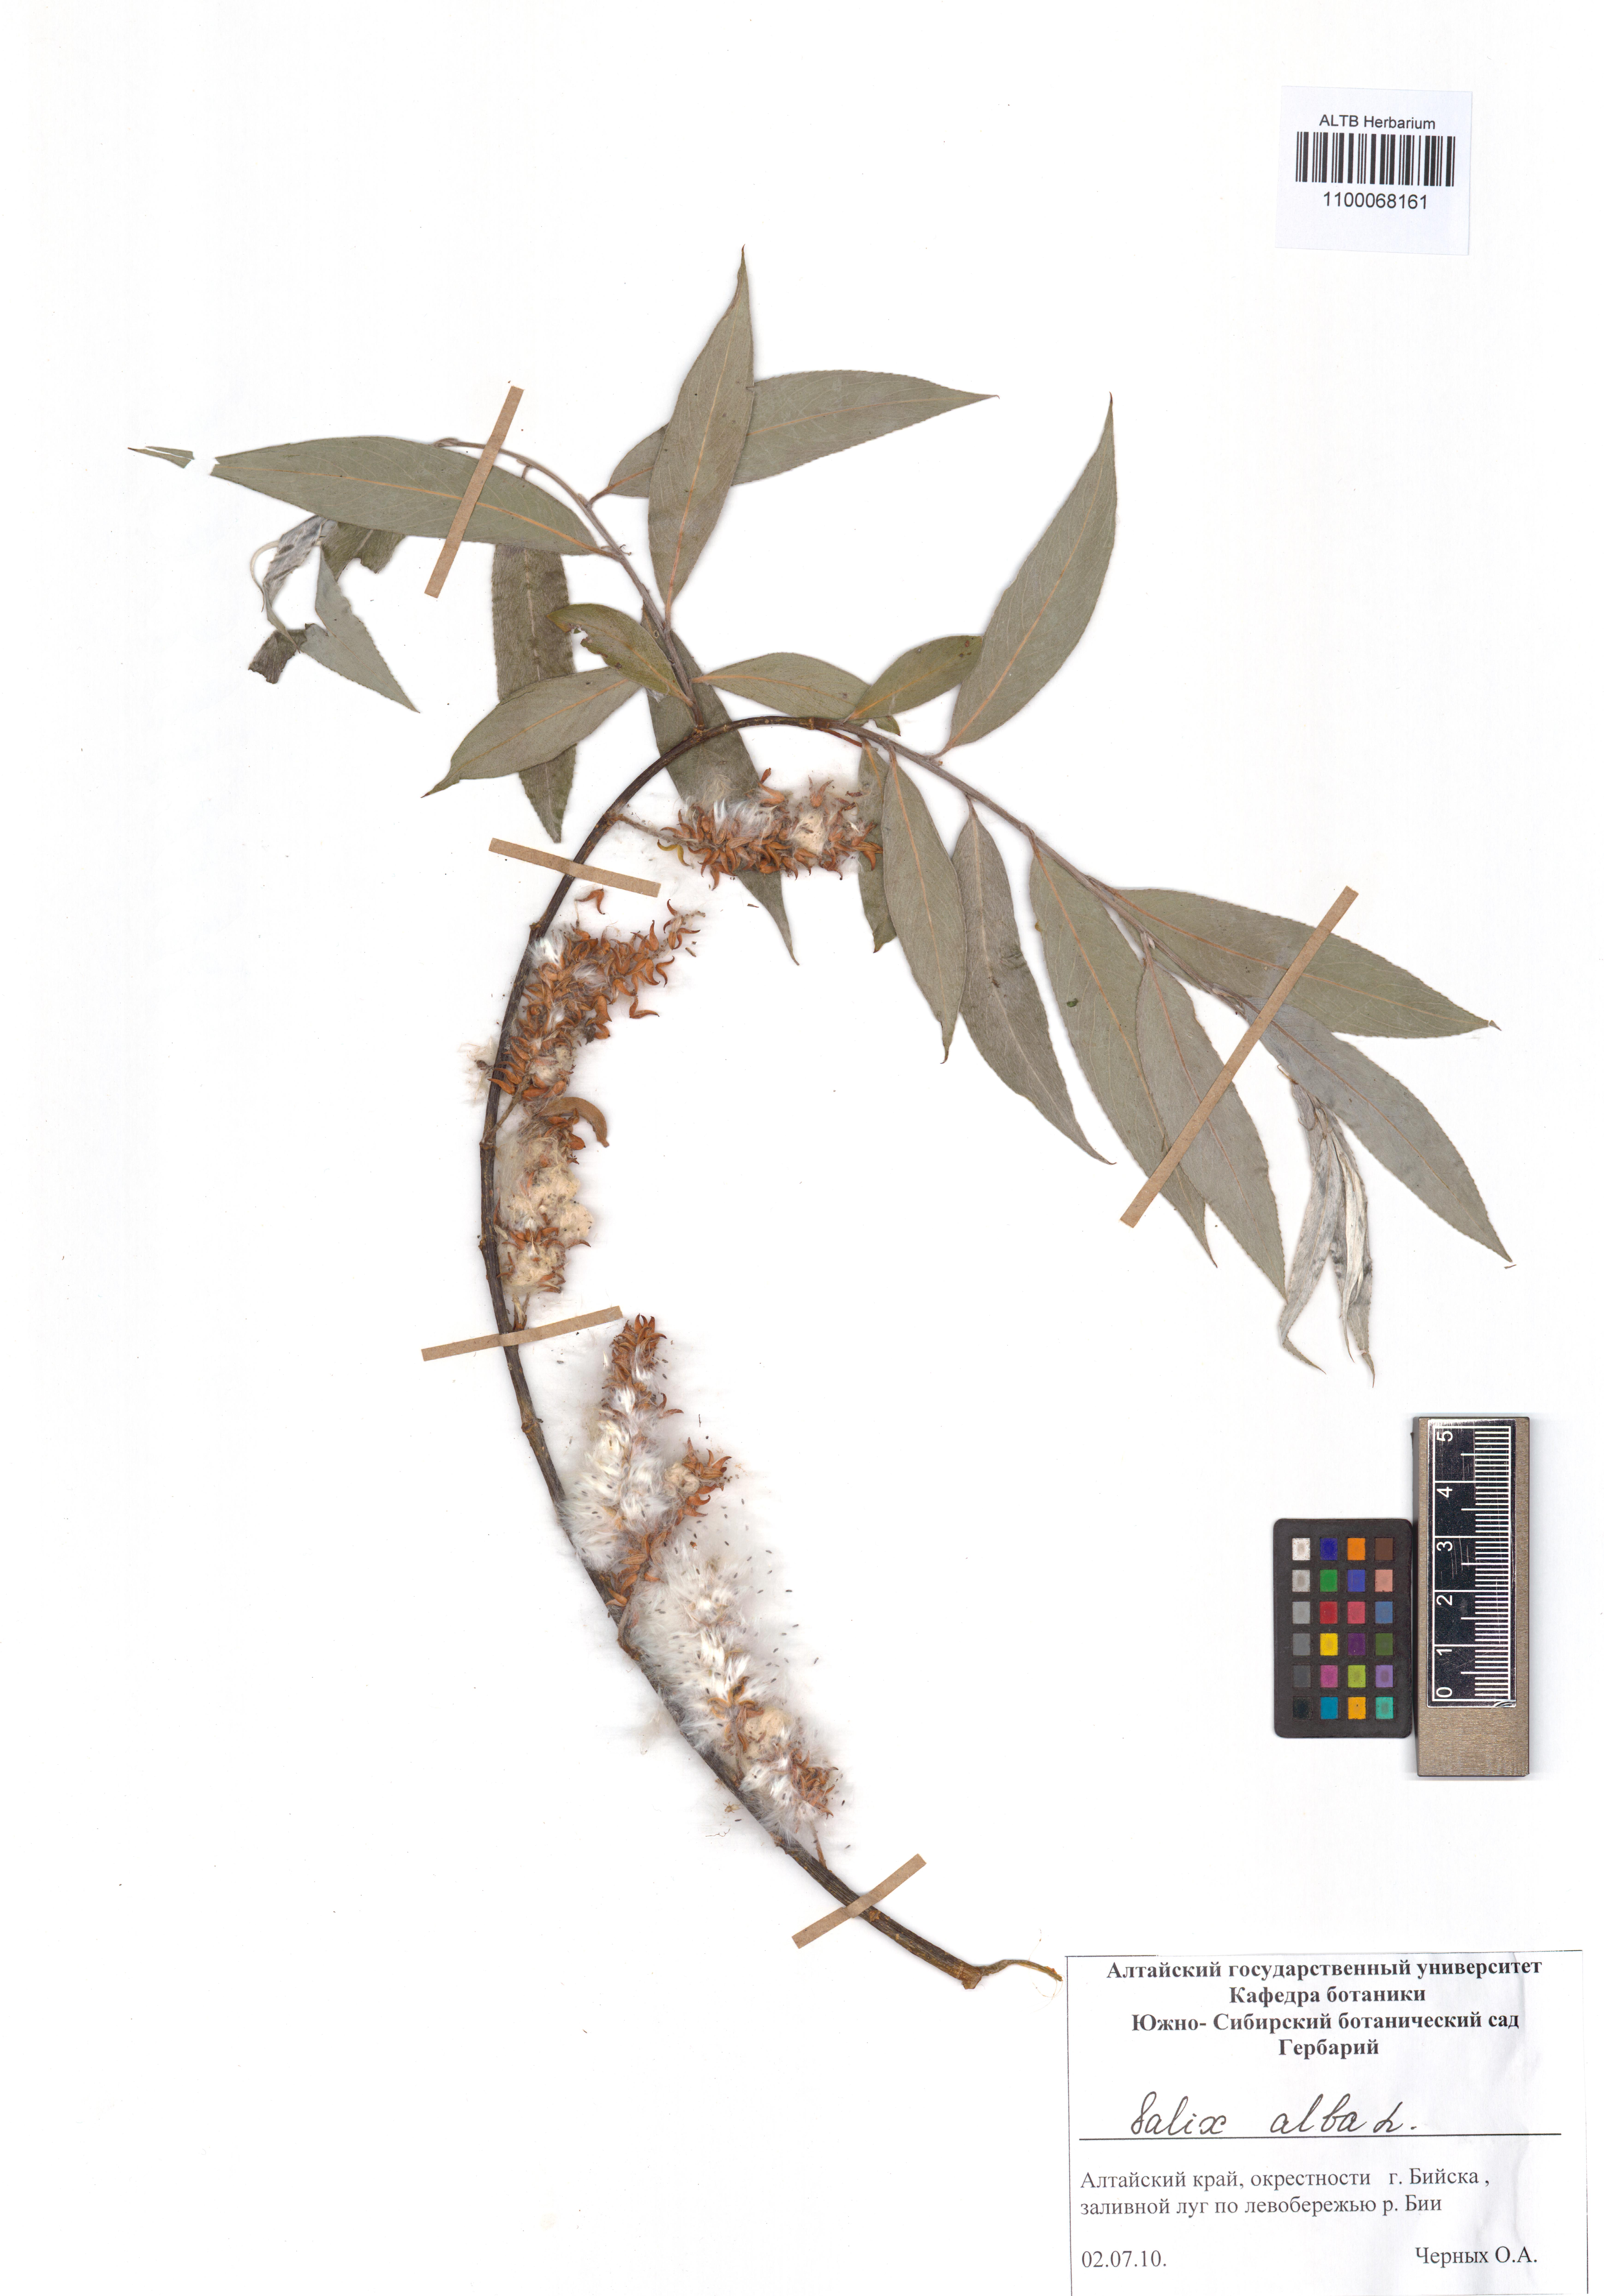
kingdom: Plantae
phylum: Tracheophyta
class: Magnoliopsida
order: Malpighiales
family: Salicaceae
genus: Salix
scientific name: Salix alba
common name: White willow
